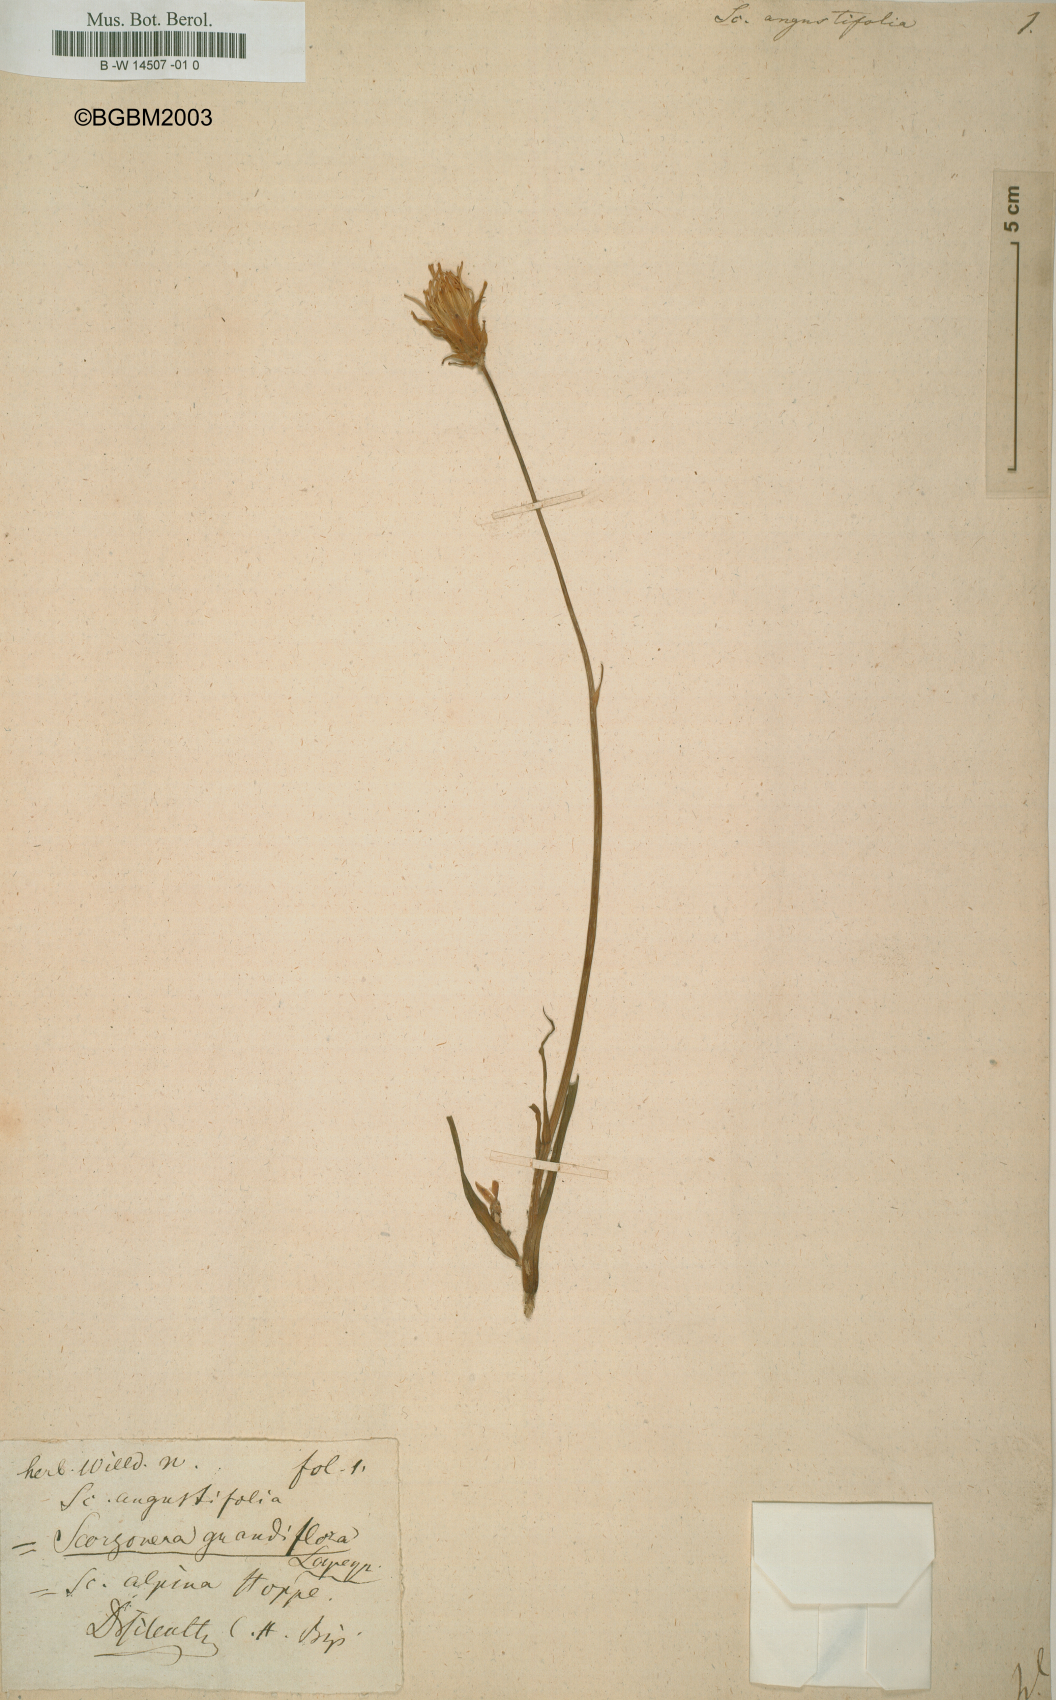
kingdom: Plantae
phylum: Tracheophyta
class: Magnoliopsida
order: Asterales
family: Asteraceae
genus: Scorzonera
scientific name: Scorzonera angustifolia
